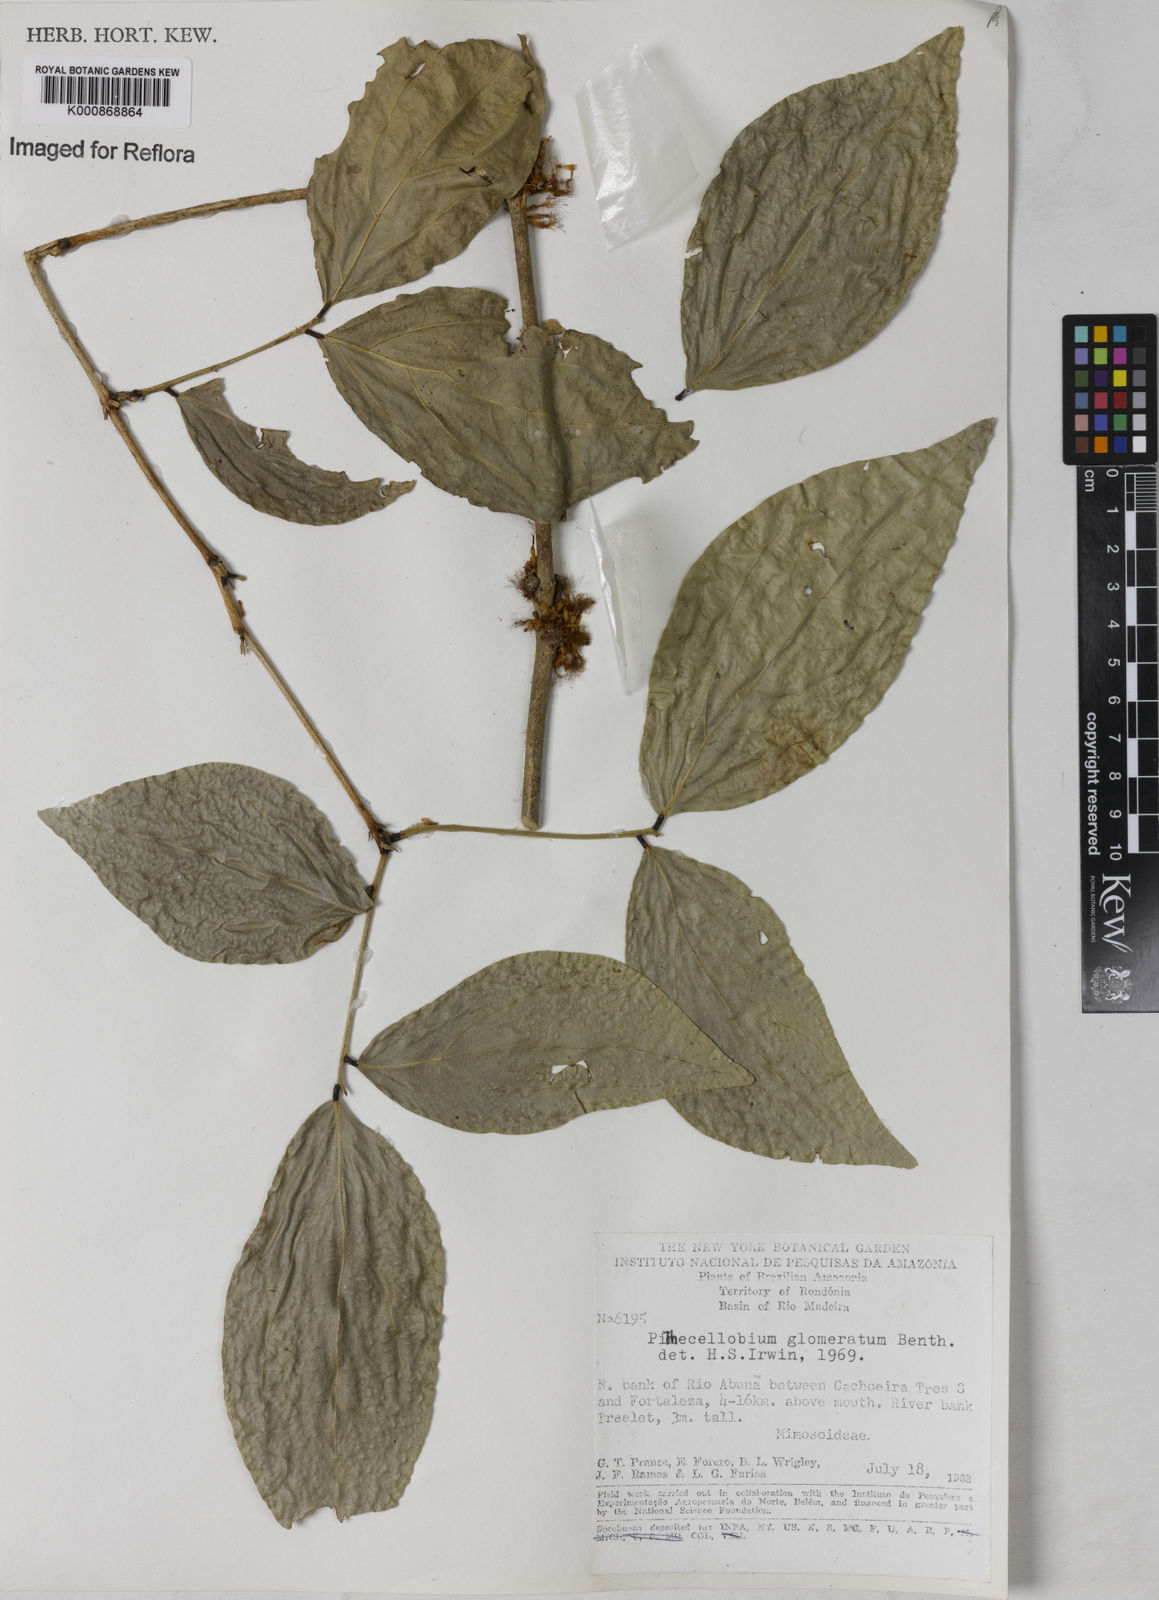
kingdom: Plantae
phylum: Tracheophyta
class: Magnoliopsida
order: Fabales
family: Fabaceae
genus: Zygia
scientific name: Zygia cataractae
